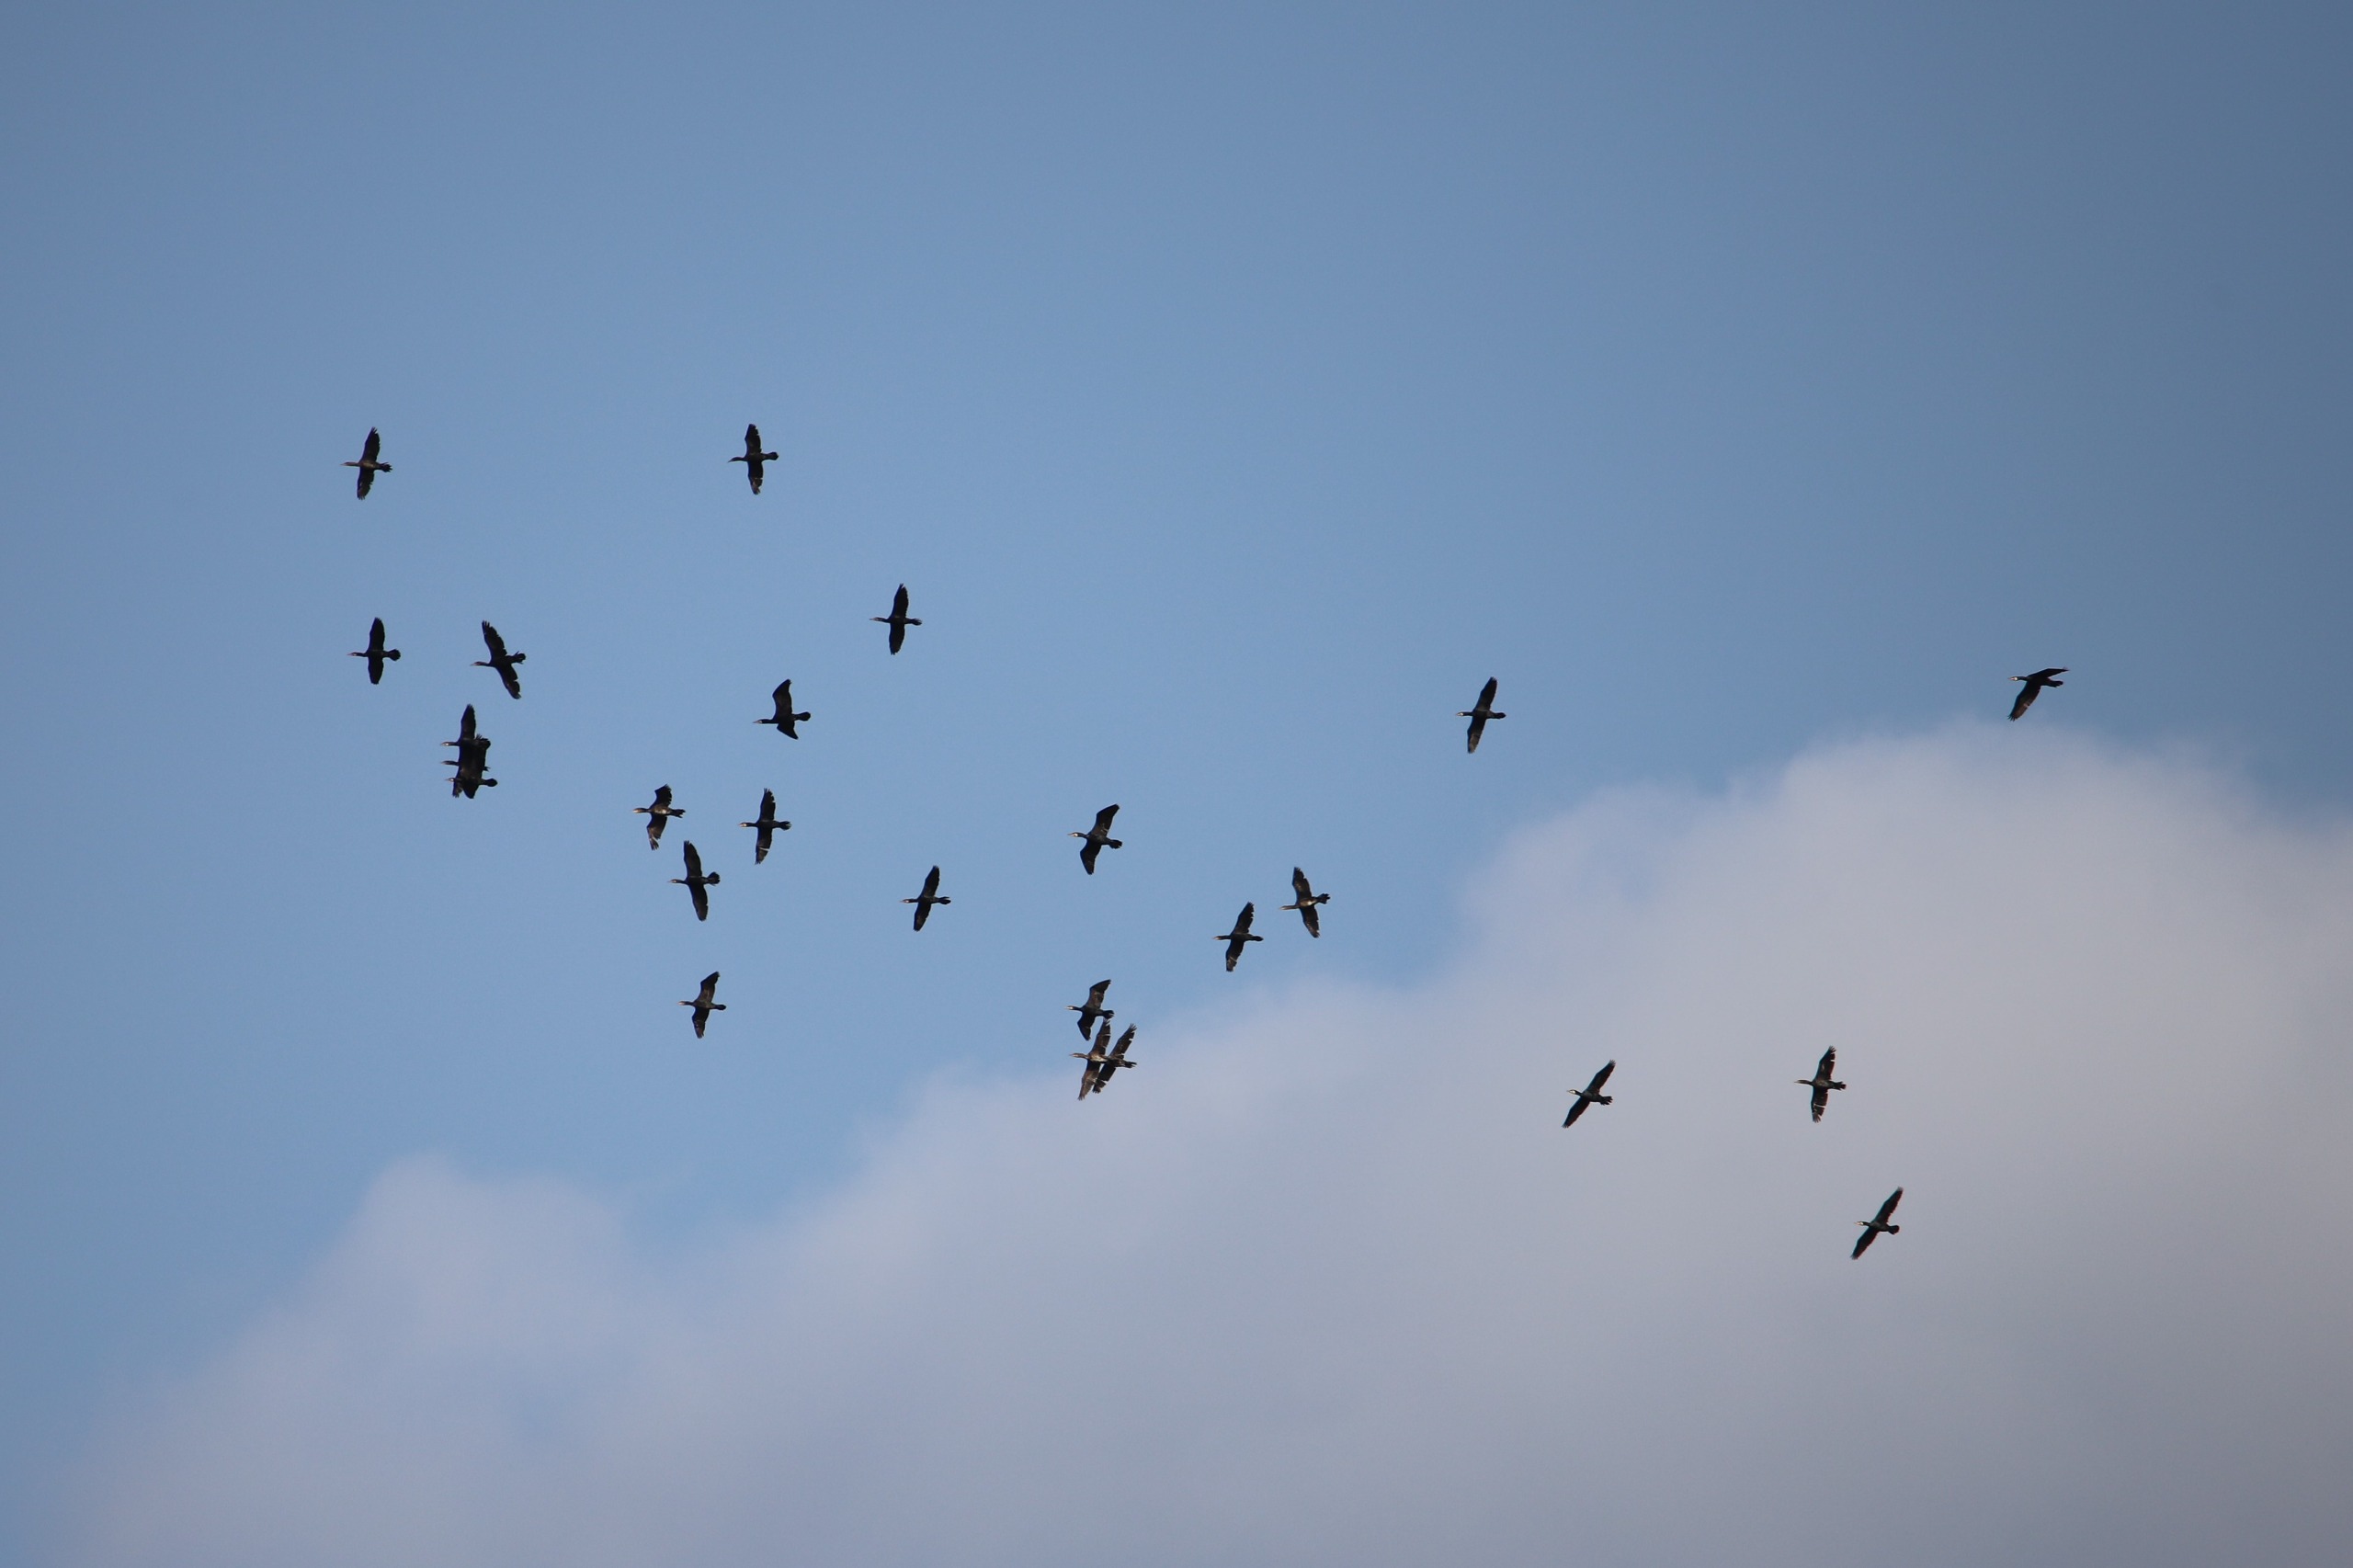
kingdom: Animalia
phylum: Chordata
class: Aves
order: Suliformes
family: Phalacrocoracidae
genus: Phalacrocorax
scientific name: Phalacrocorax carbo
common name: Skarv
